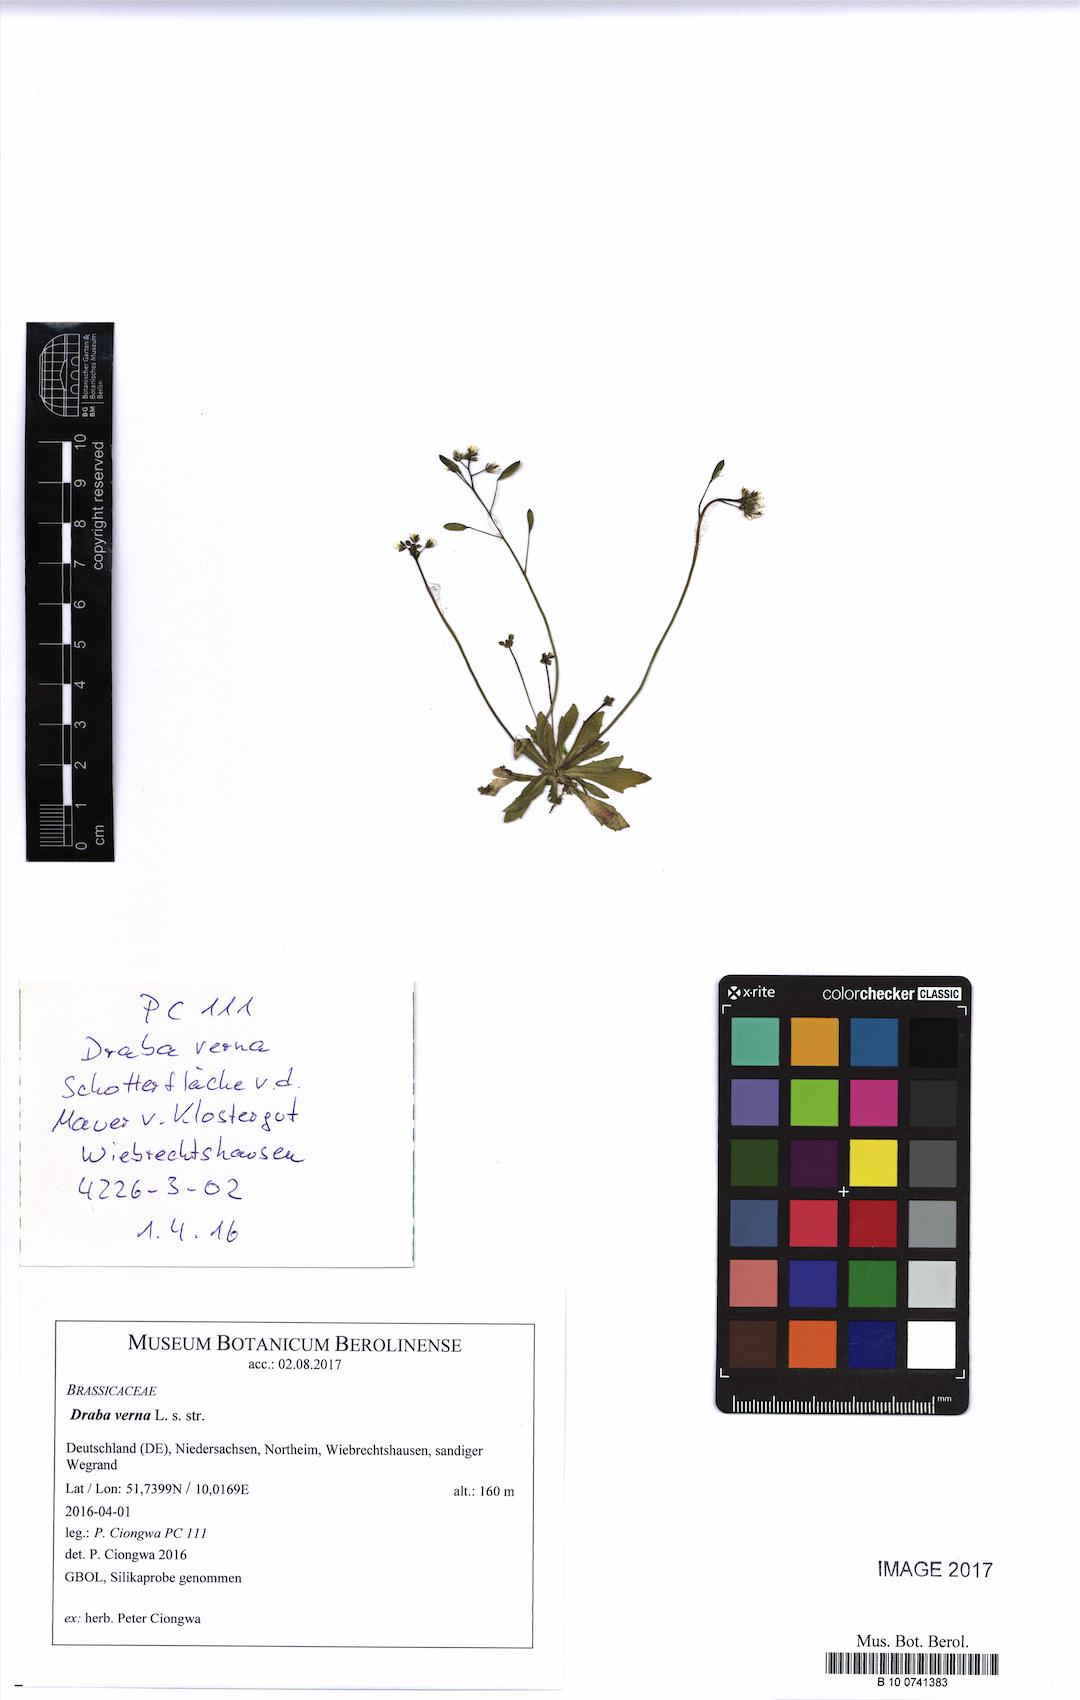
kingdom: Plantae
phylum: Tracheophyta
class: Magnoliopsida
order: Brassicales
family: Brassicaceae
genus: Draba
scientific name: Draba verna
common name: Spring draba
